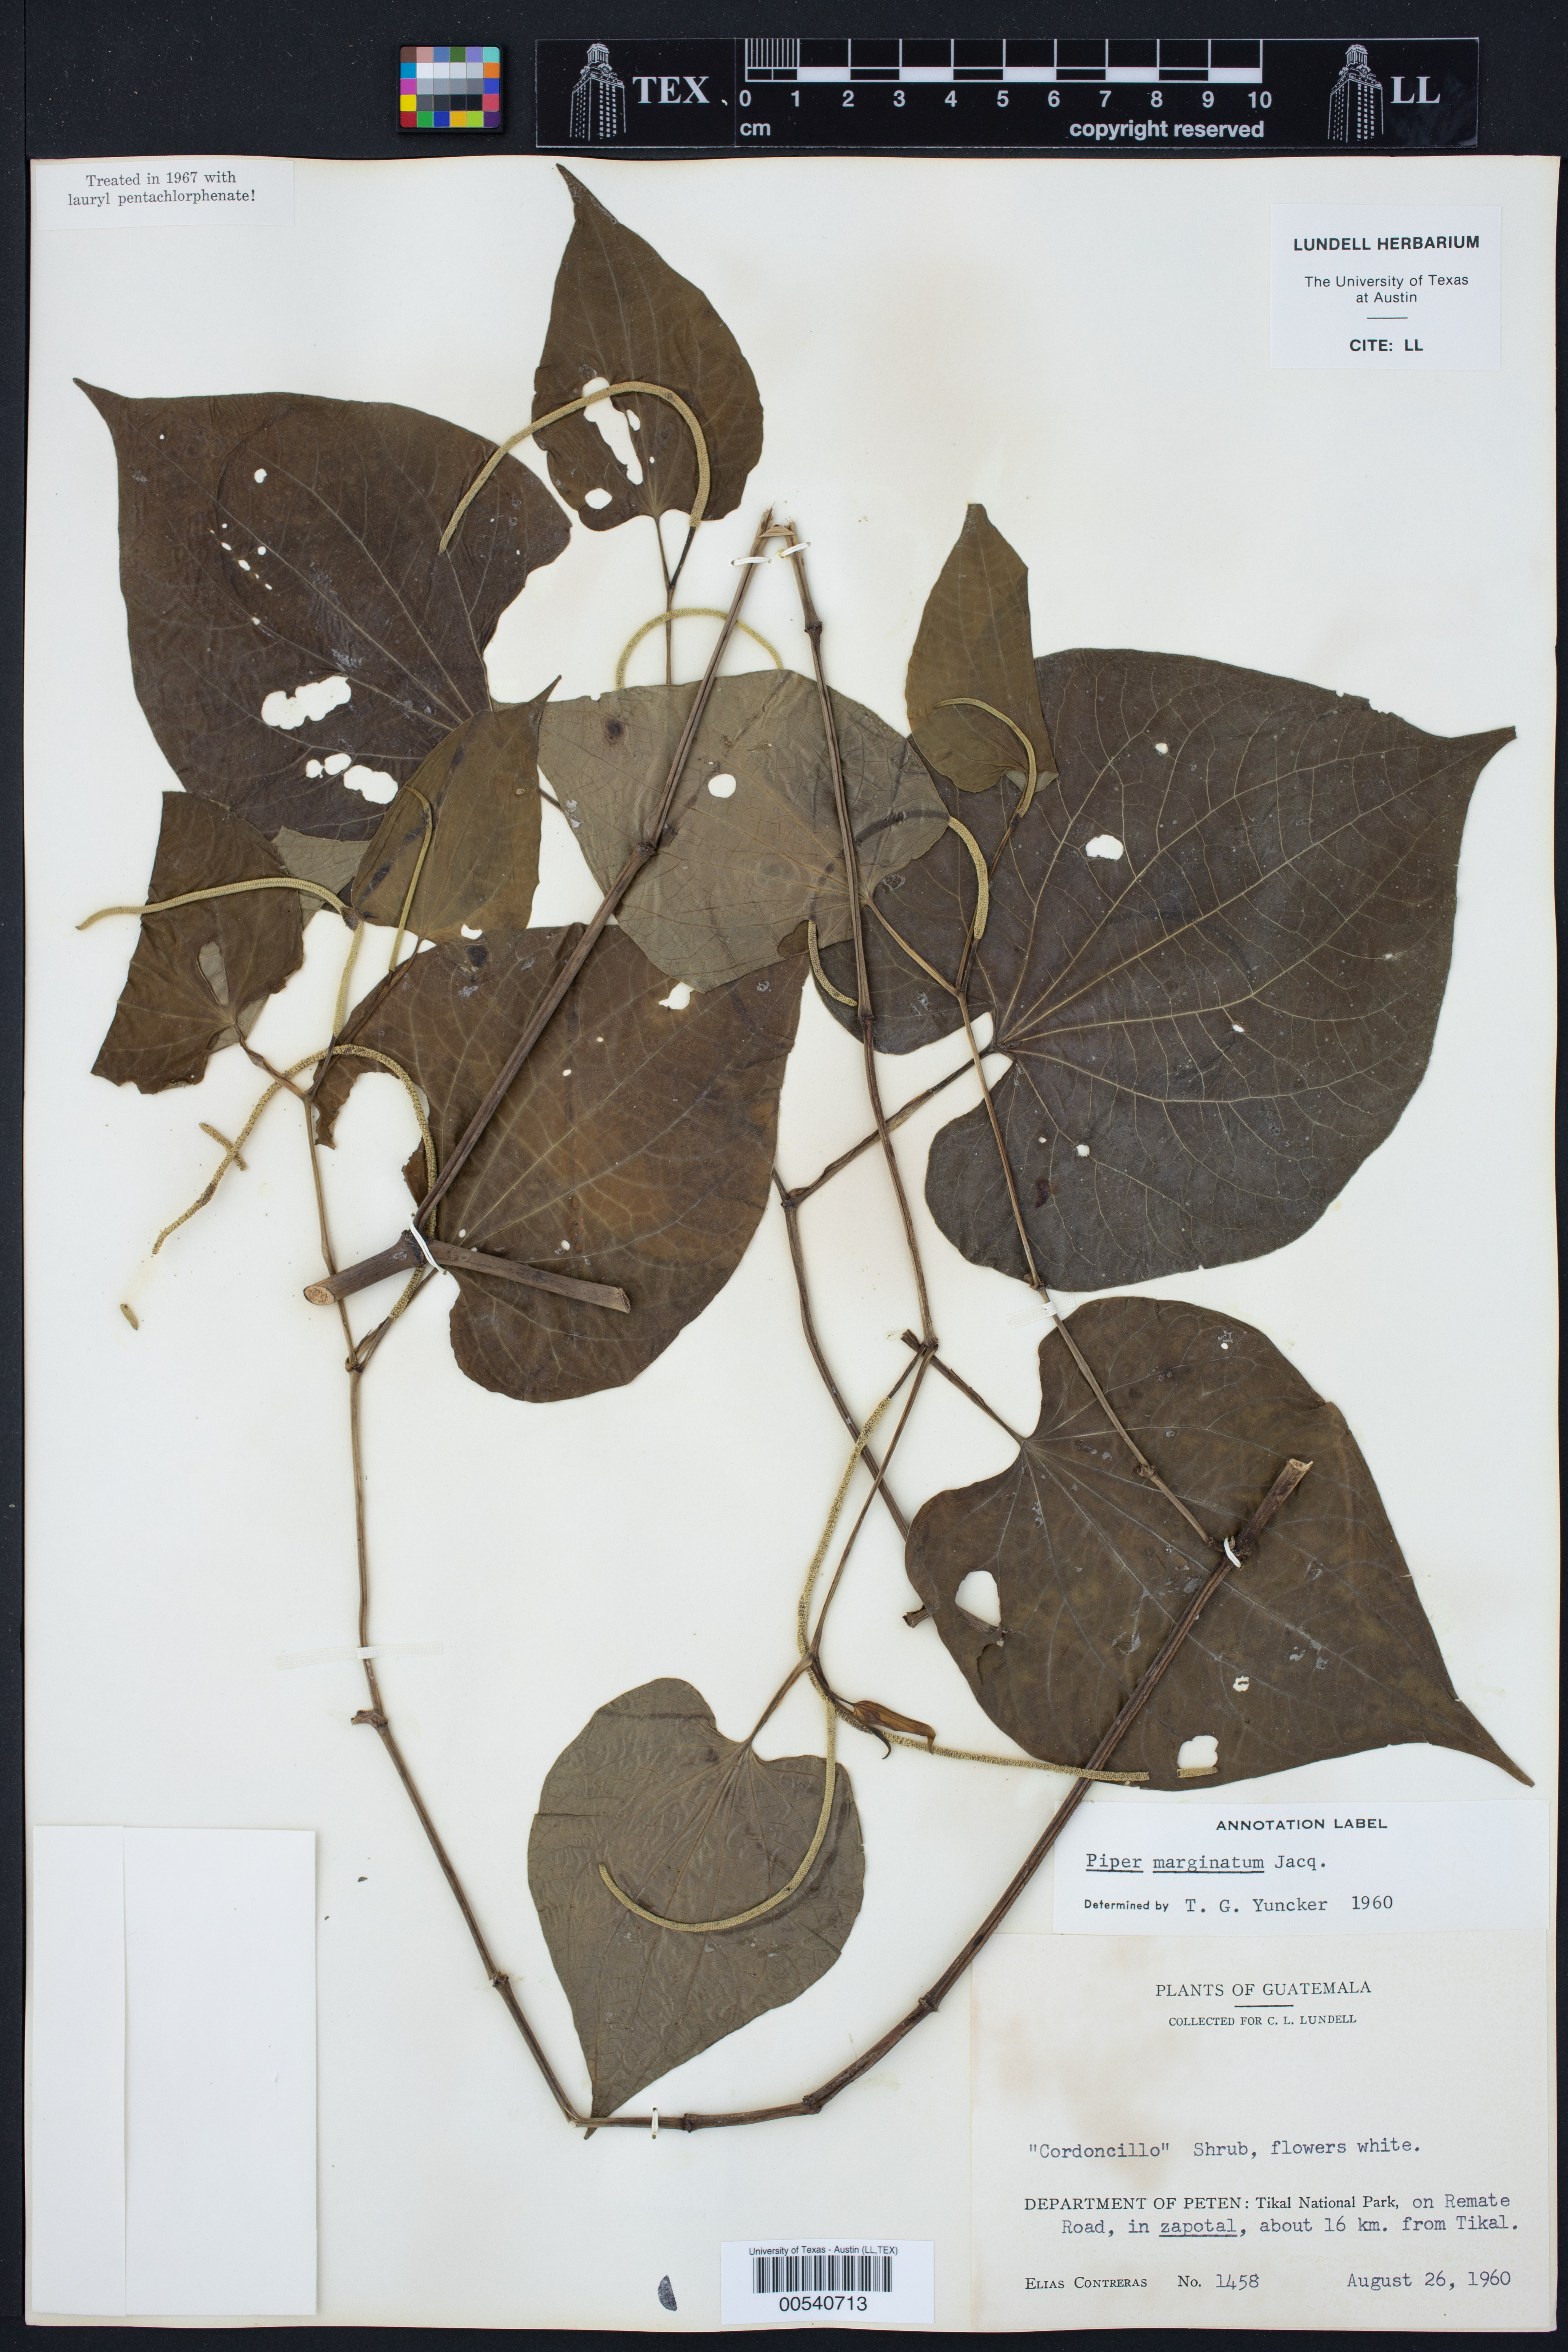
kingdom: Plantae
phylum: Tracheophyta
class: Magnoliopsida
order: Piperales
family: Piperaceae
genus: Piper
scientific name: Piper marginatum
